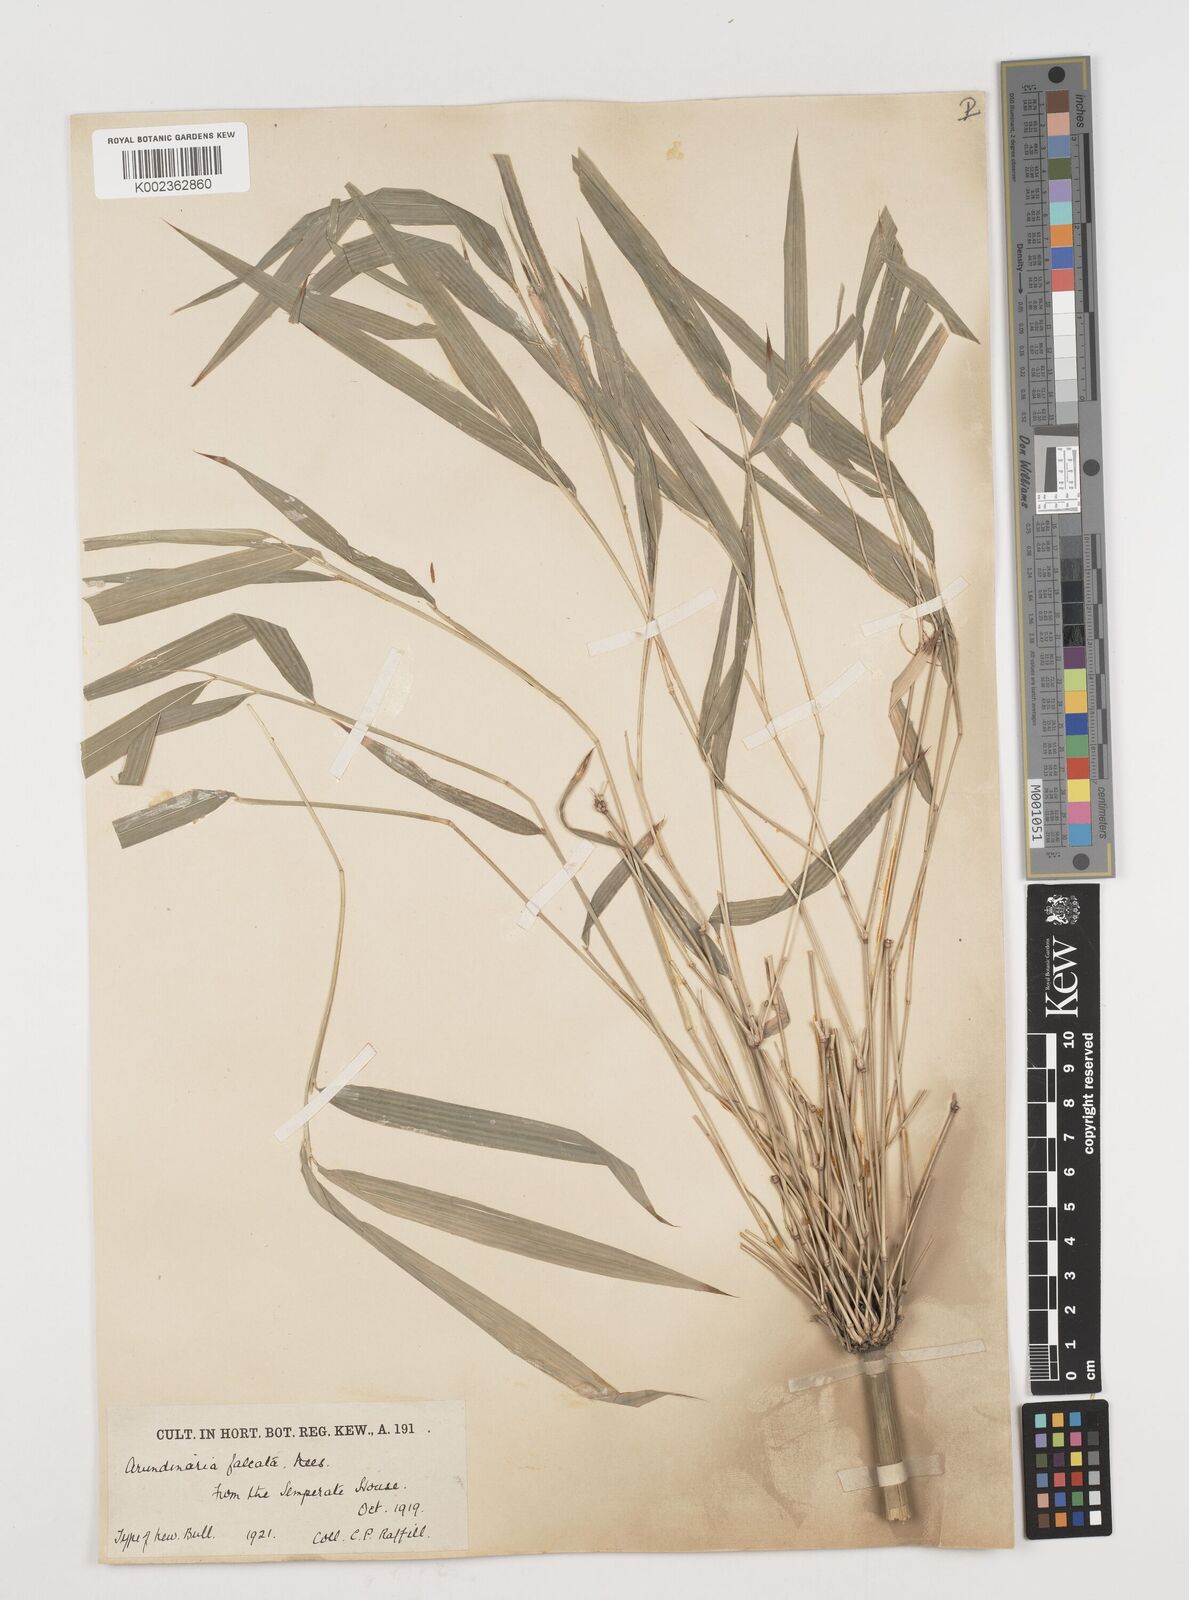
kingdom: Plantae
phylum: Tracheophyta
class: Liliopsida
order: Poales
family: Poaceae
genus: Drepanostachyum
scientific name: Drepanostachyum falcatum
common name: Himalayan bamboo
